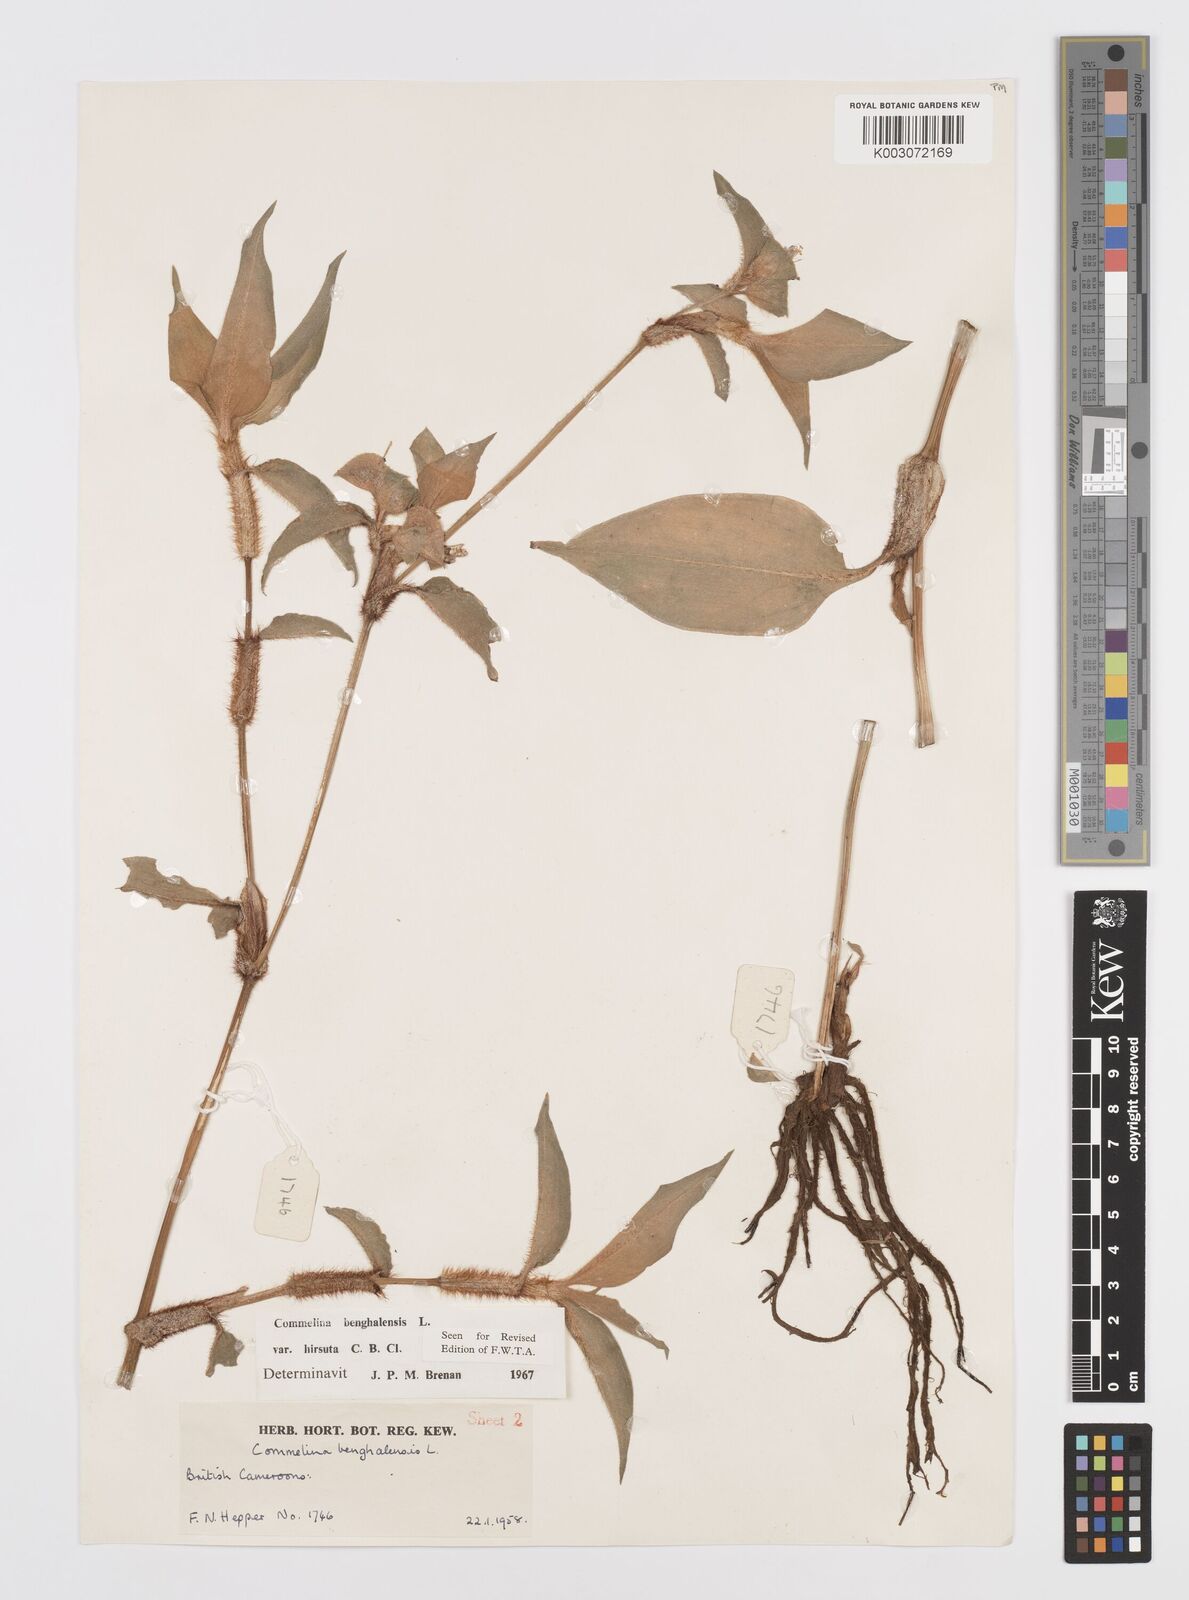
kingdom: Plantae
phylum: Tracheophyta
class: Liliopsida
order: Commelinales
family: Commelinaceae
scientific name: Commelinaceae
